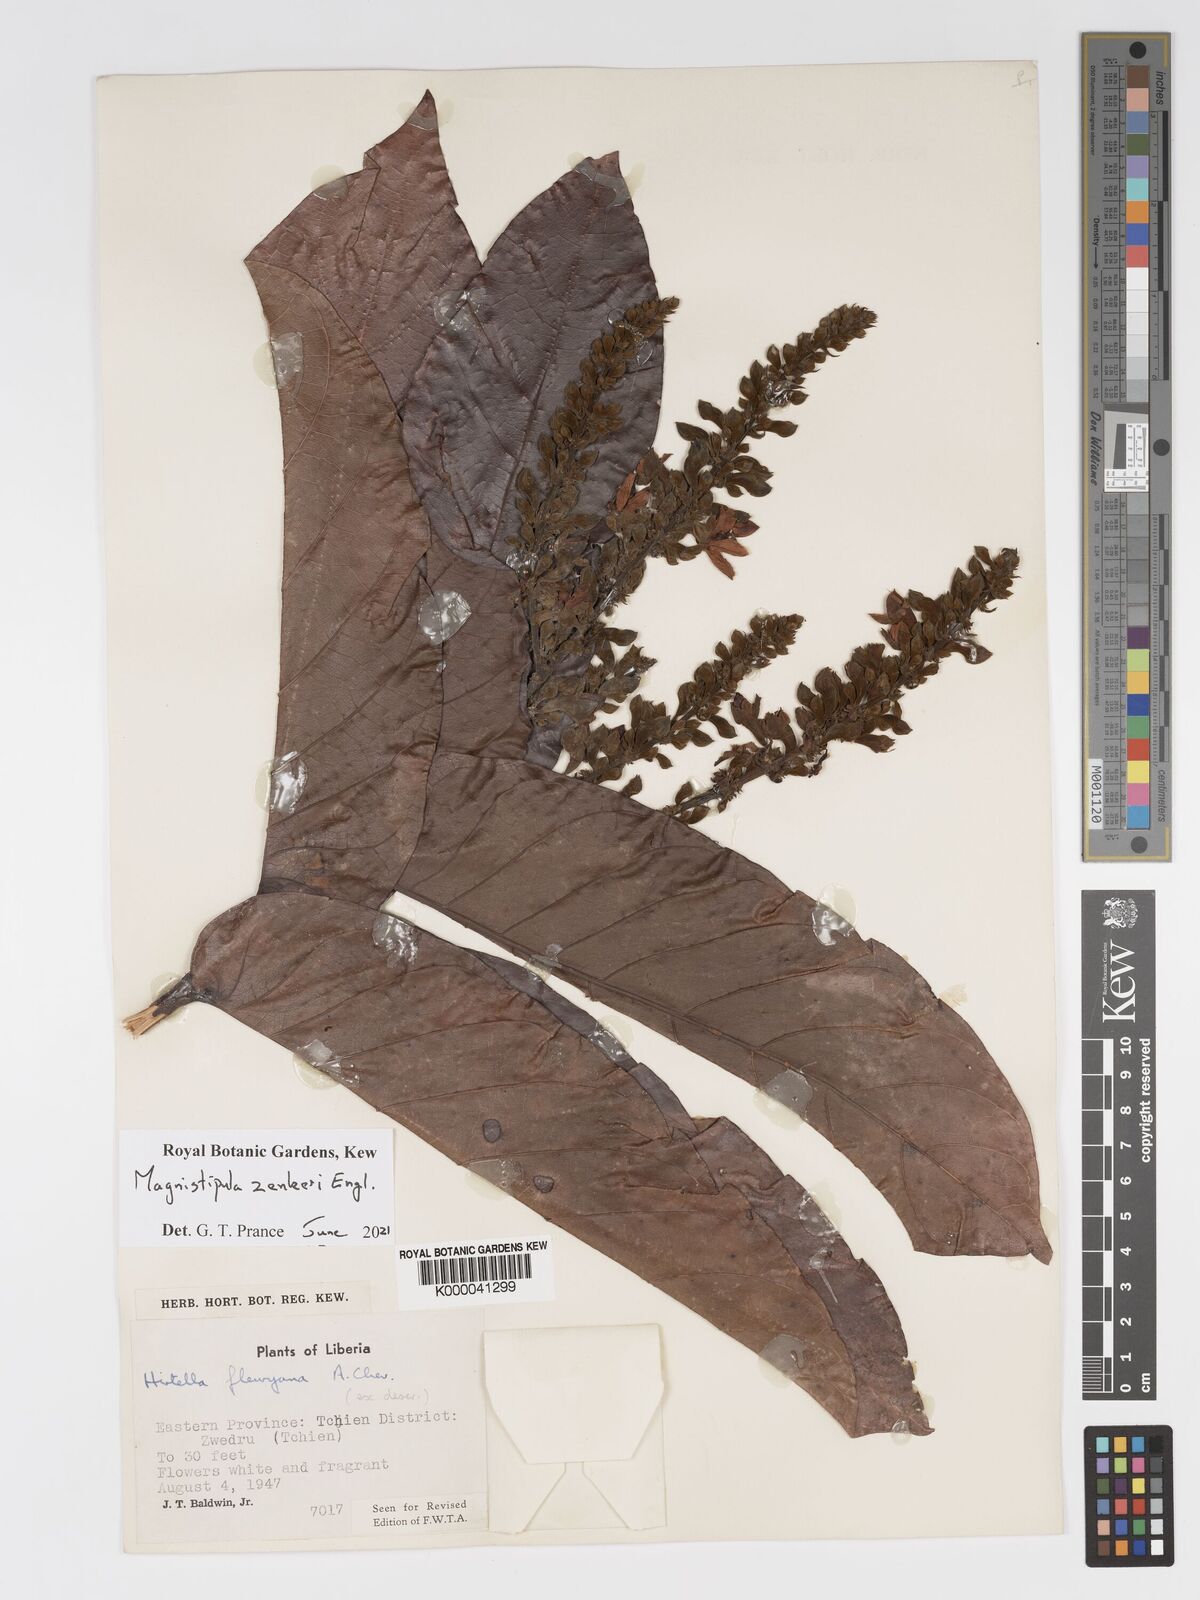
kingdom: Plantae
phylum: Tracheophyta
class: Magnoliopsida
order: Malpighiales
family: Chrysobalanaceae
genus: Magnistipula
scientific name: Magnistipula zenkeri
